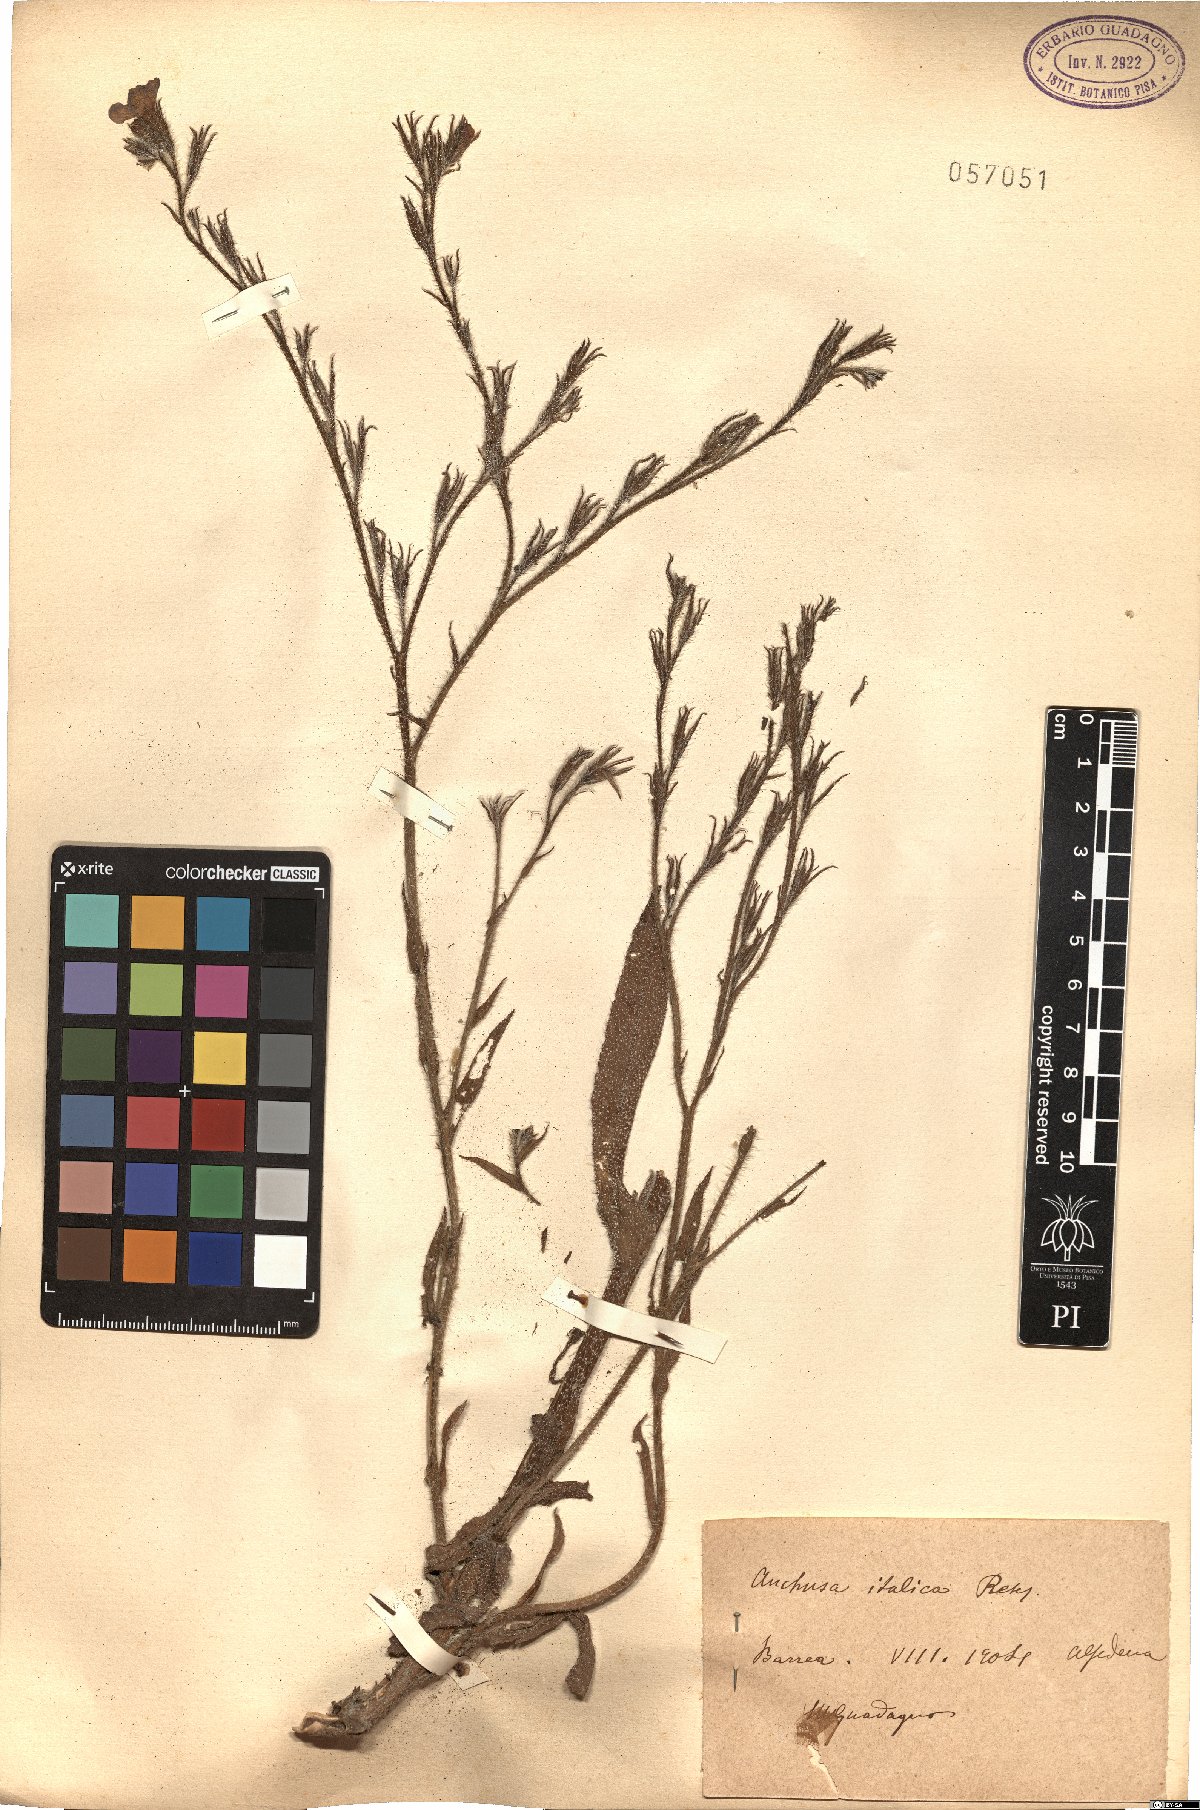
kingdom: Plantae
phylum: Tracheophyta
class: Magnoliopsida
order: Boraginales
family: Boraginaceae
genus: Anchusa
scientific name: Anchusa azurea
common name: Garden anchusa
